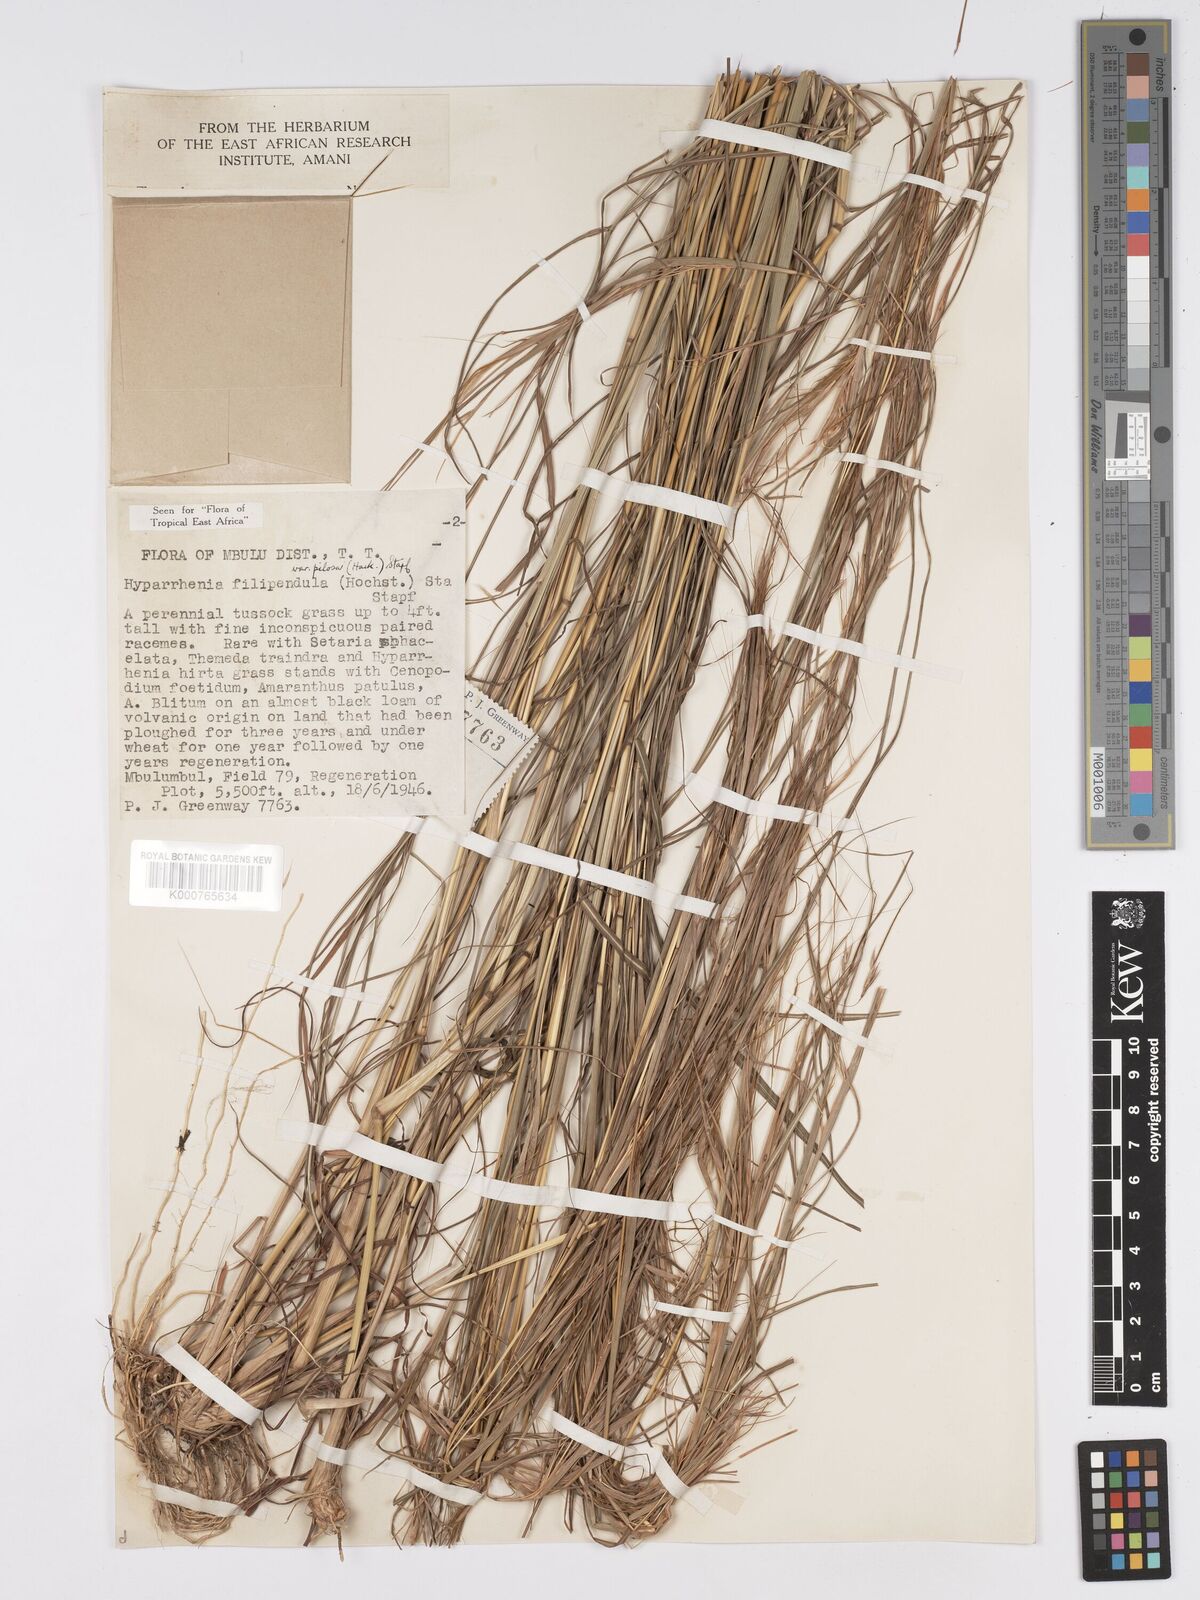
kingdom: Plantae
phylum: Tracheophyta
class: Liliopsida
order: Poales
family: Poaceae
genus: Hyparrhenia
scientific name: Hyparrhenia filipendula
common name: Tambookie grass
